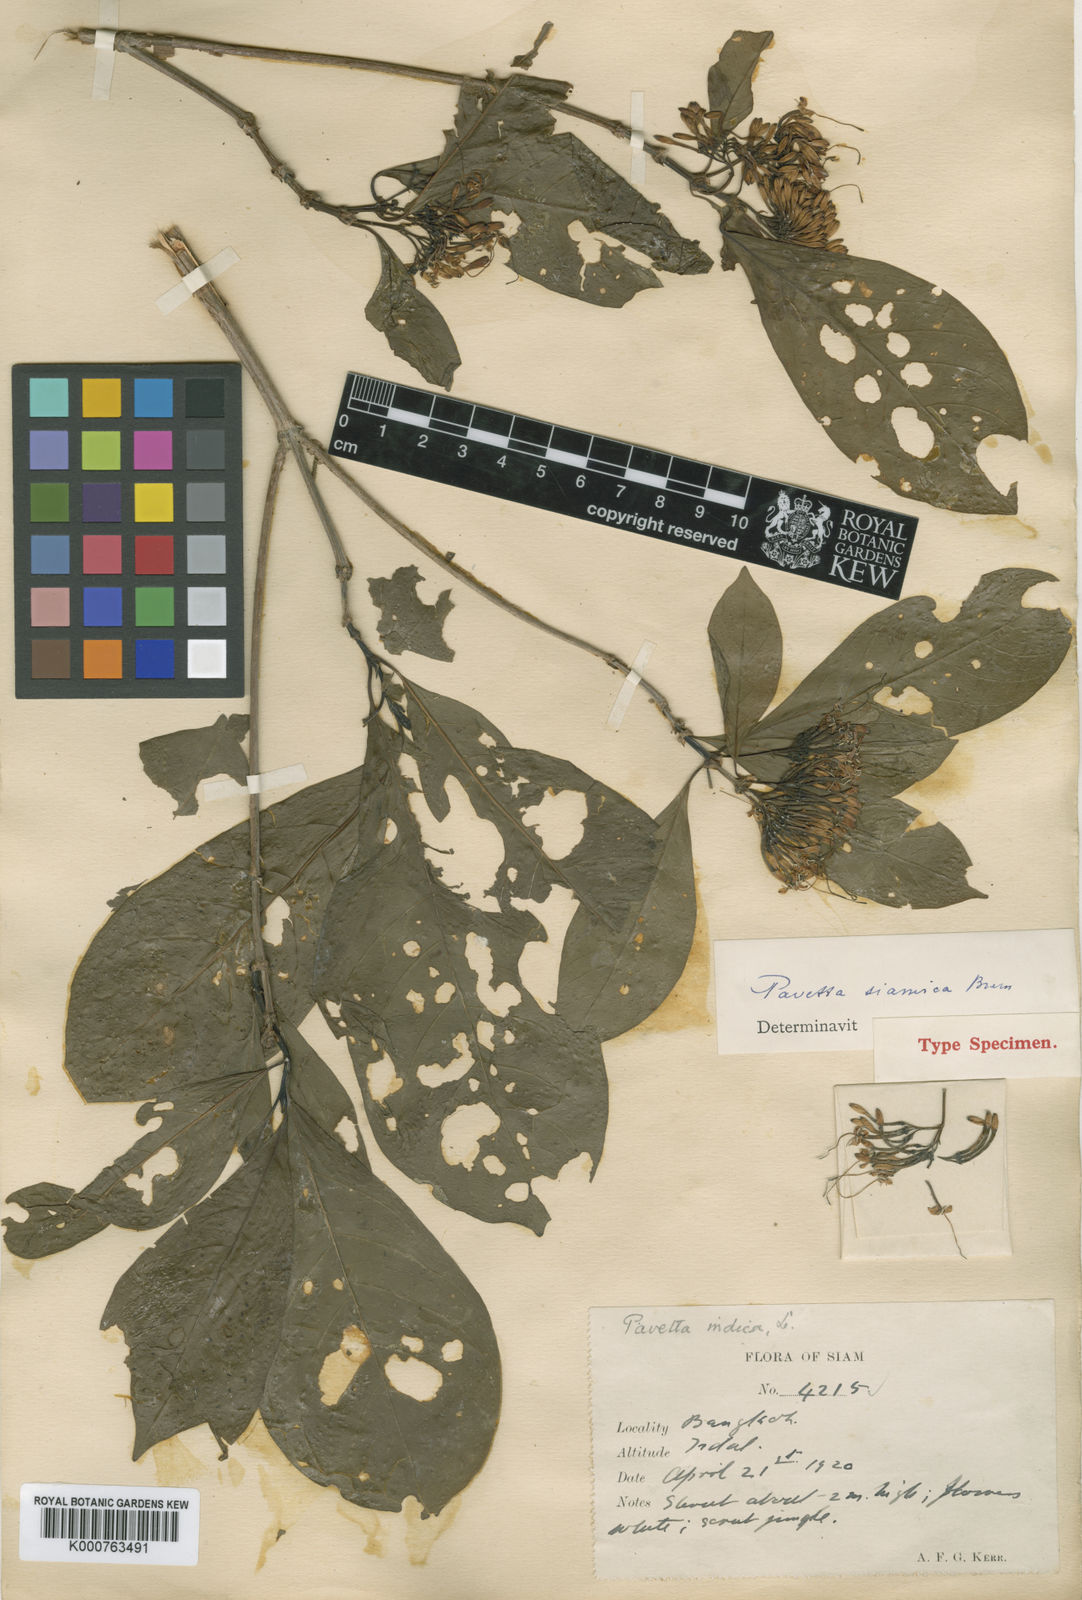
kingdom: Plantae
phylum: Tracheophyta
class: Magnoliopsida
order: Gentianales
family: Rubiaceae
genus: Pavetta
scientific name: Pavetta siamica
